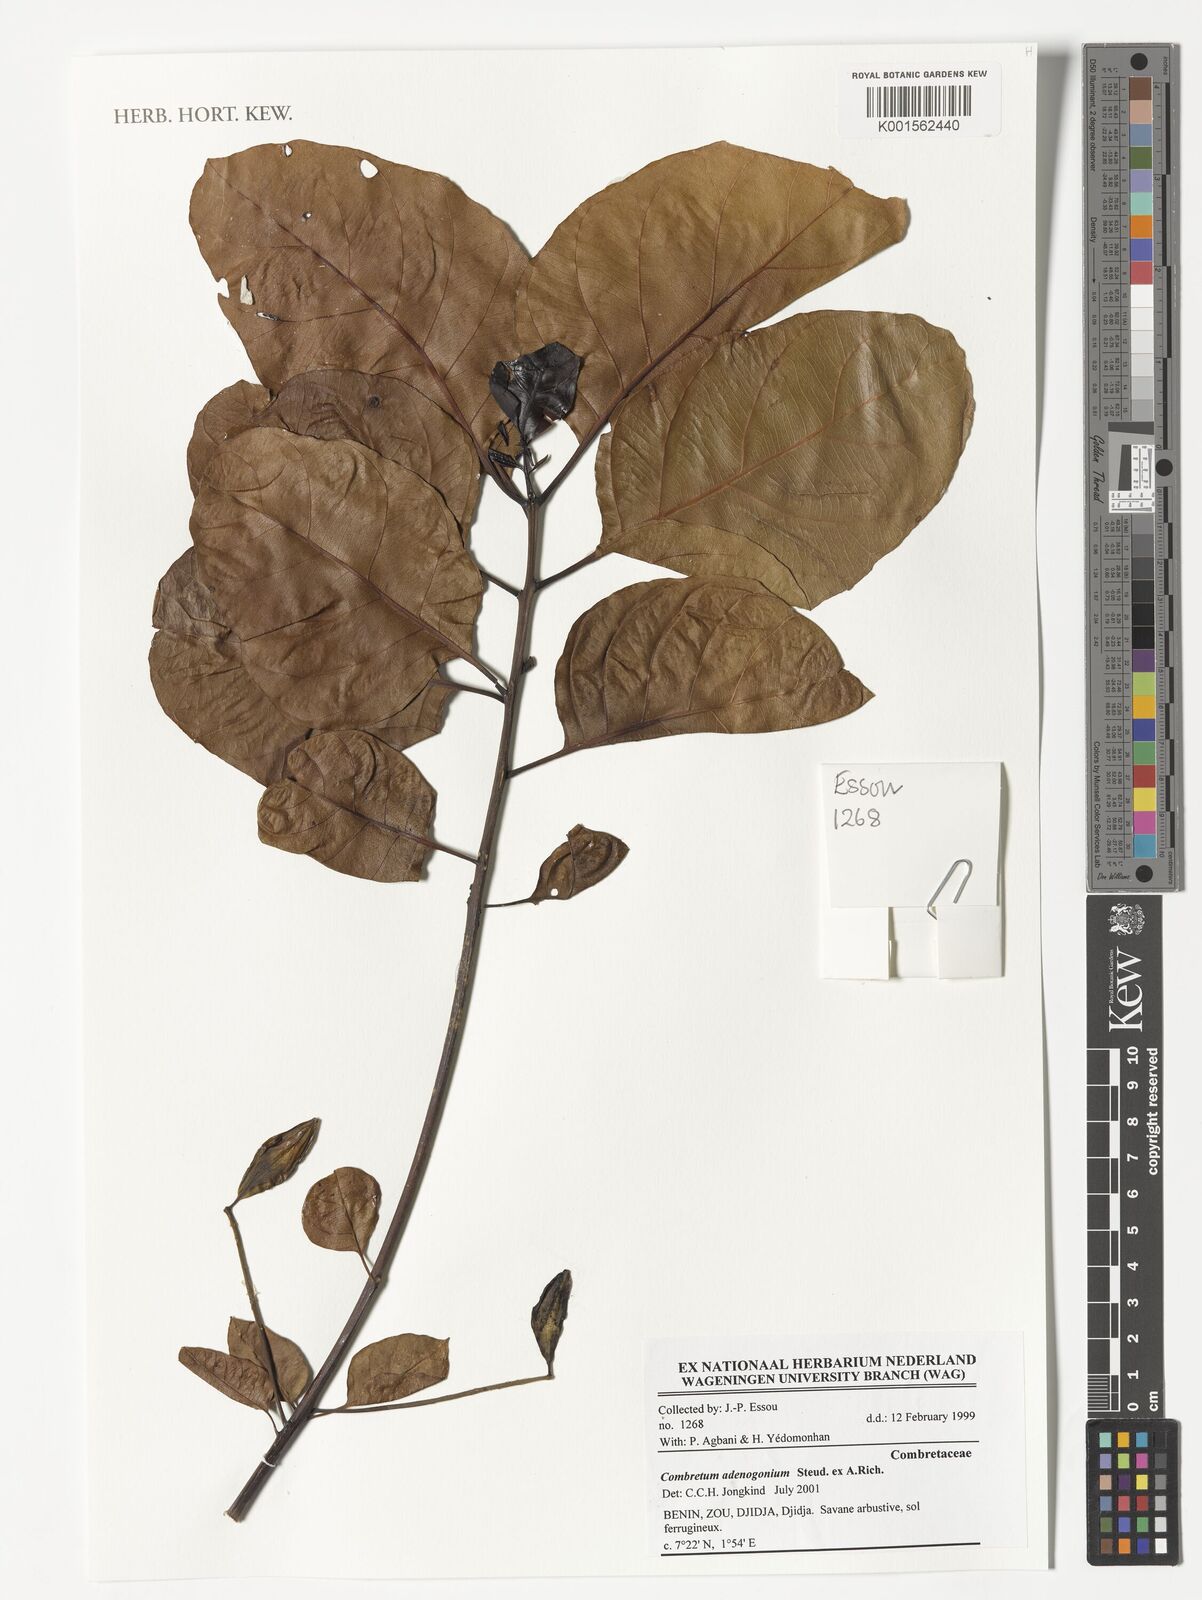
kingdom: Plantae
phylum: Tracheophyta
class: Magnoliopsida
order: Myrtales
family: Combretaceae
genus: Combretum
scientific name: Combretum adenogonium
